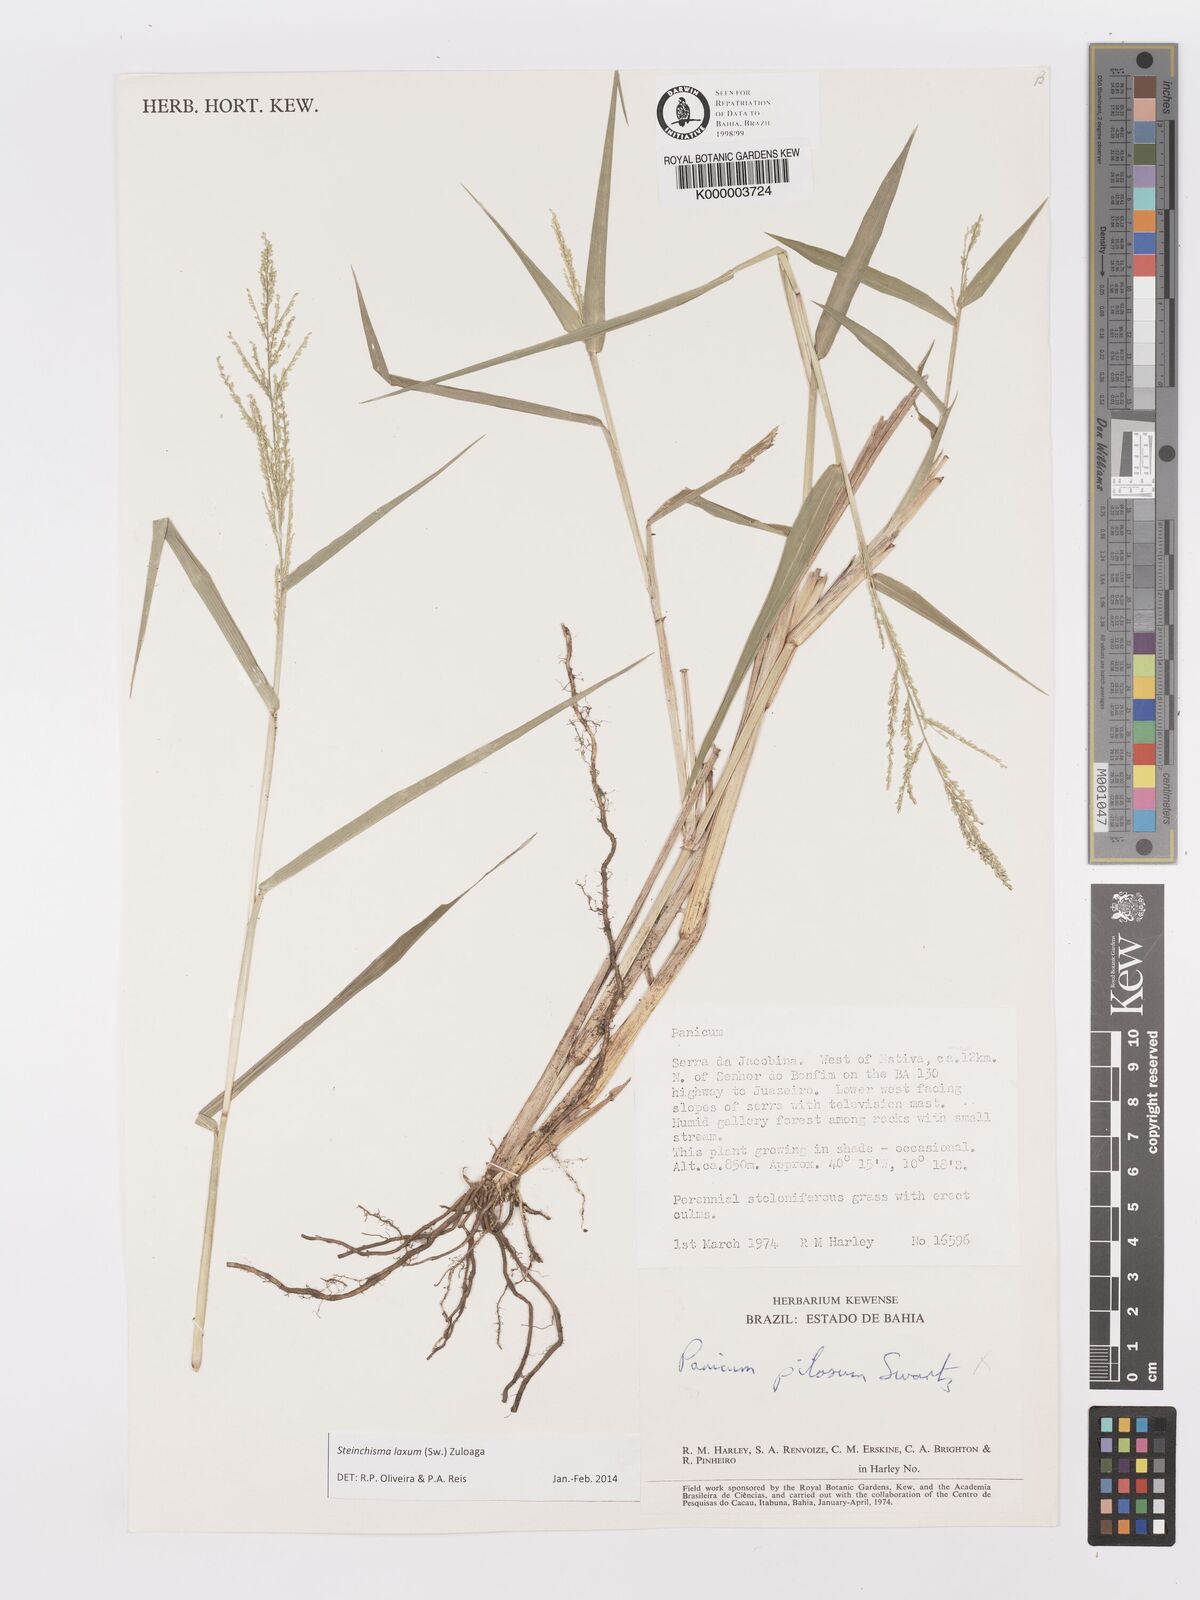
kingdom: Plantae
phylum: Tracheophyta
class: Liliopsida
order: Poales
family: Poaceae
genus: Panicum
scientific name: Panicum
